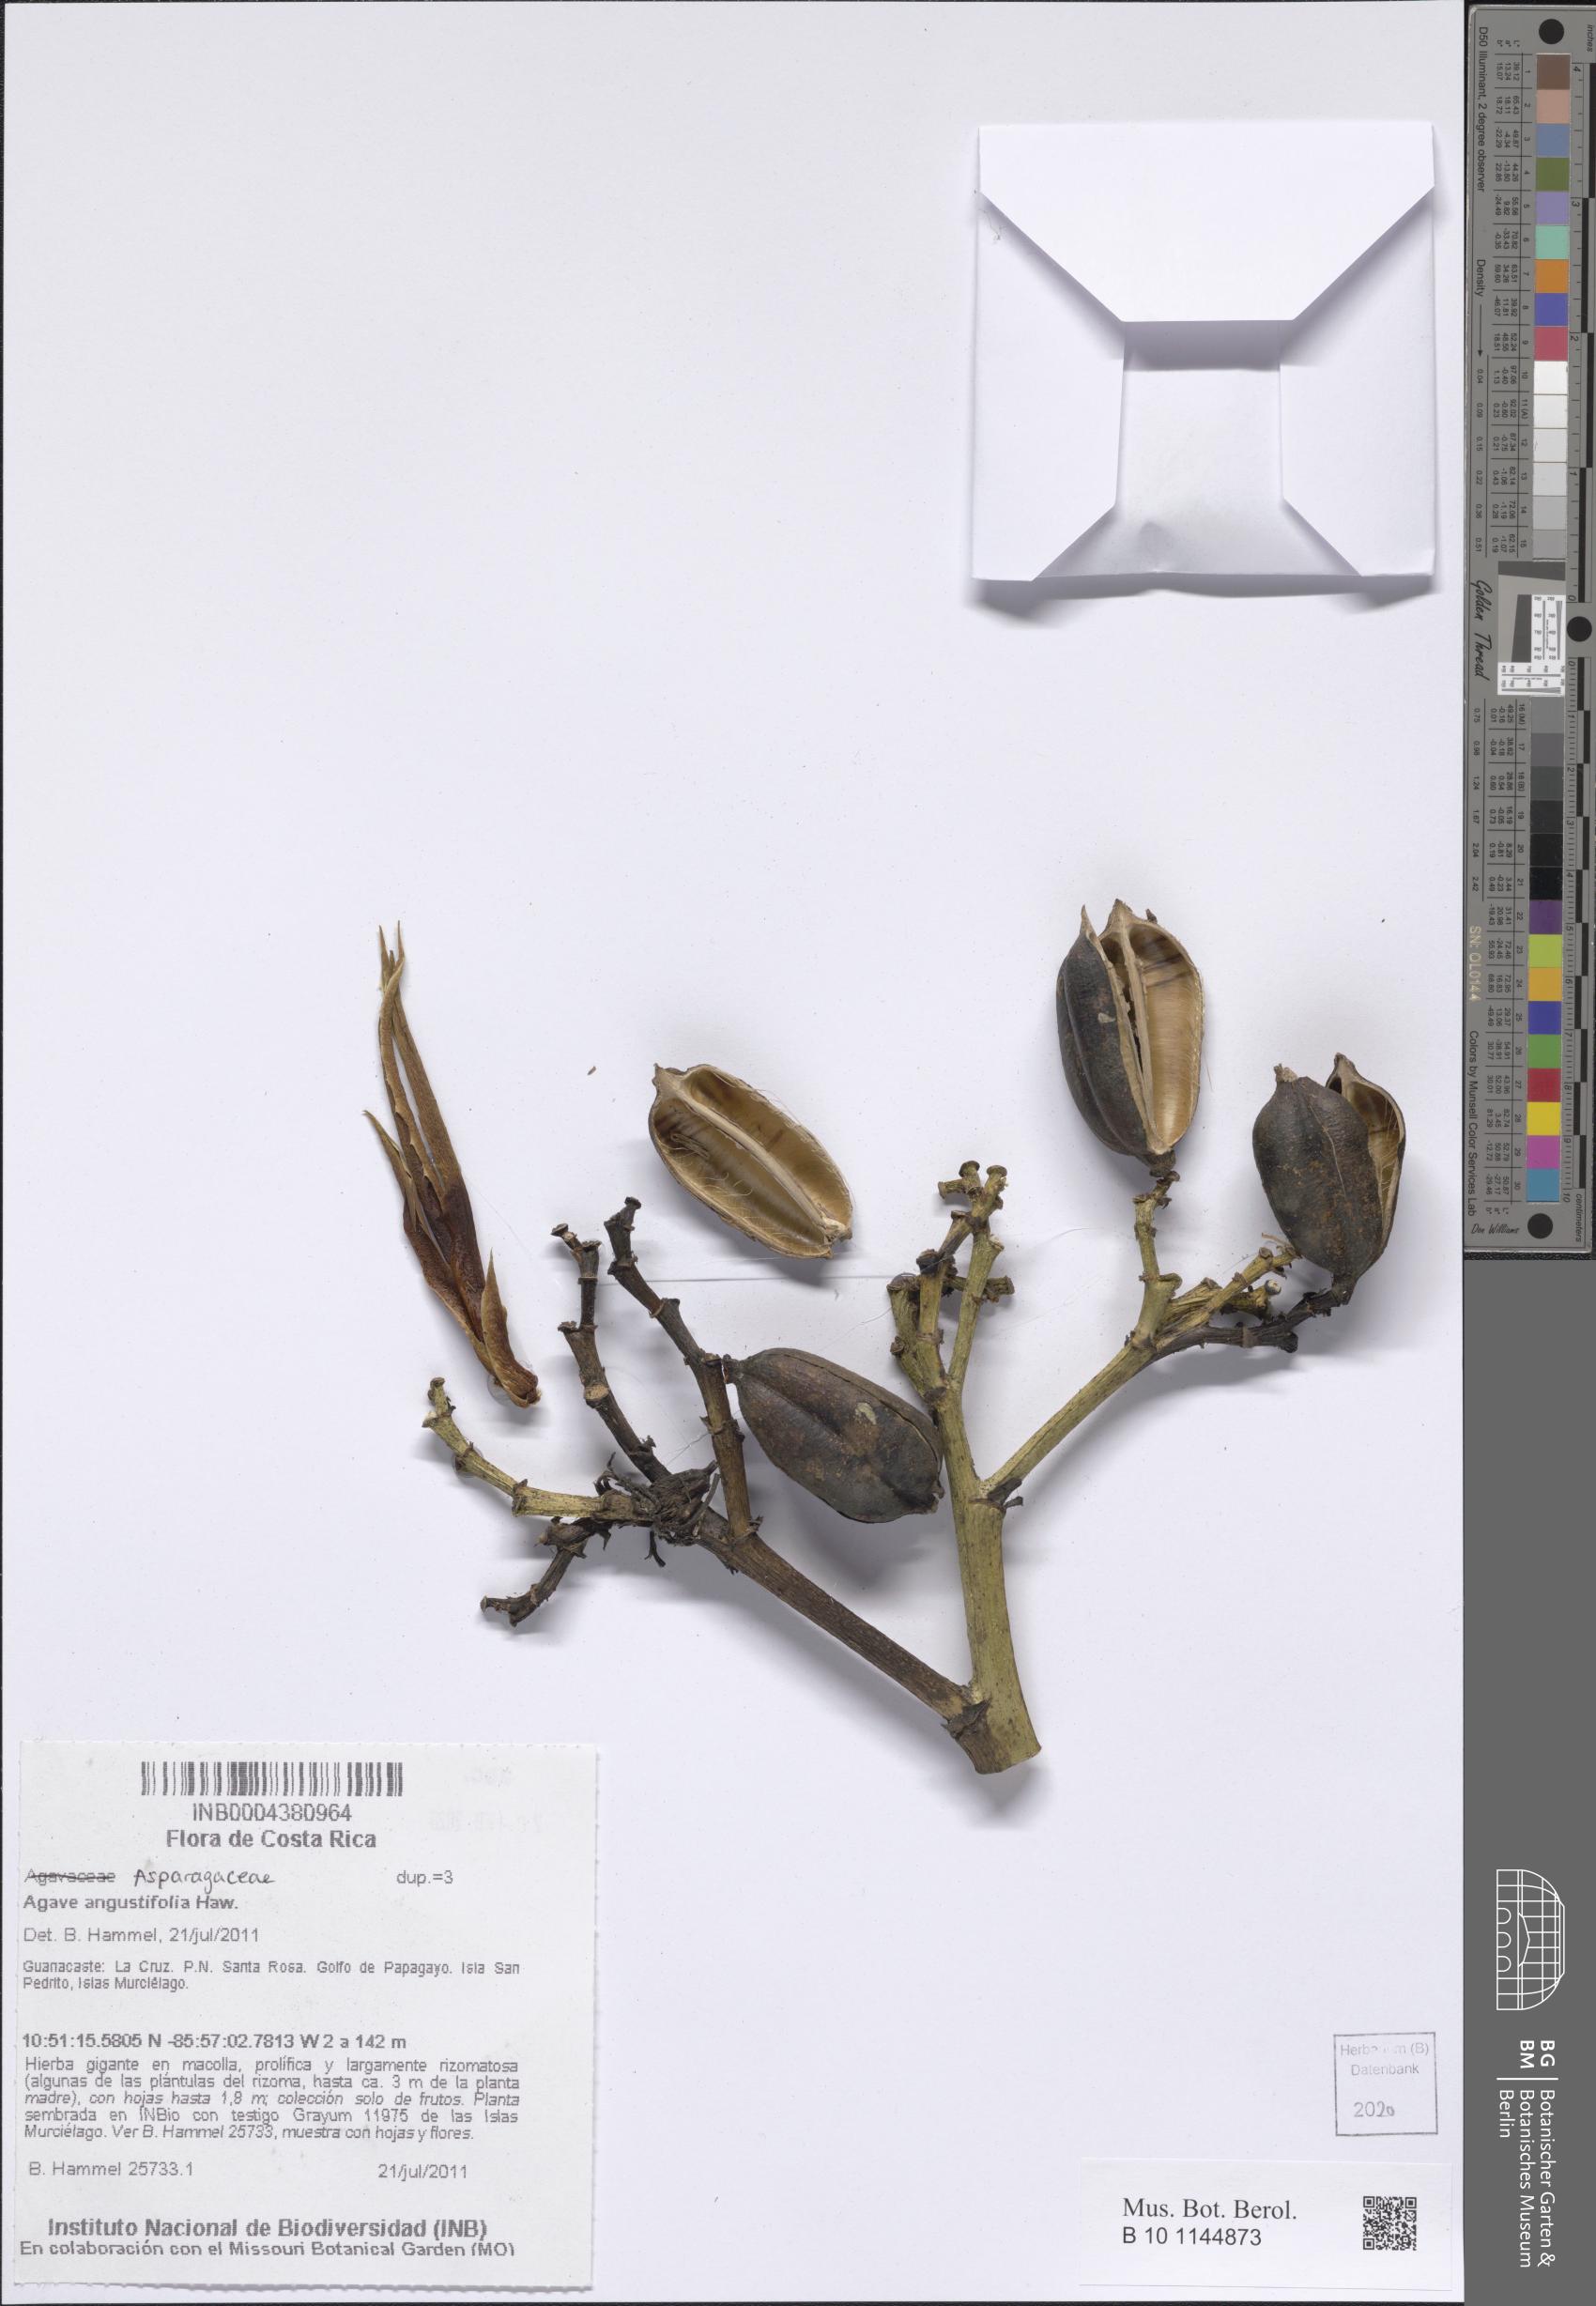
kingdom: Plantae
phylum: Tracheophyta
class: Liliopsida
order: Asparagales
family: Asparagaceae
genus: Agave
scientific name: Agave angustifolia
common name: Mescal agave
